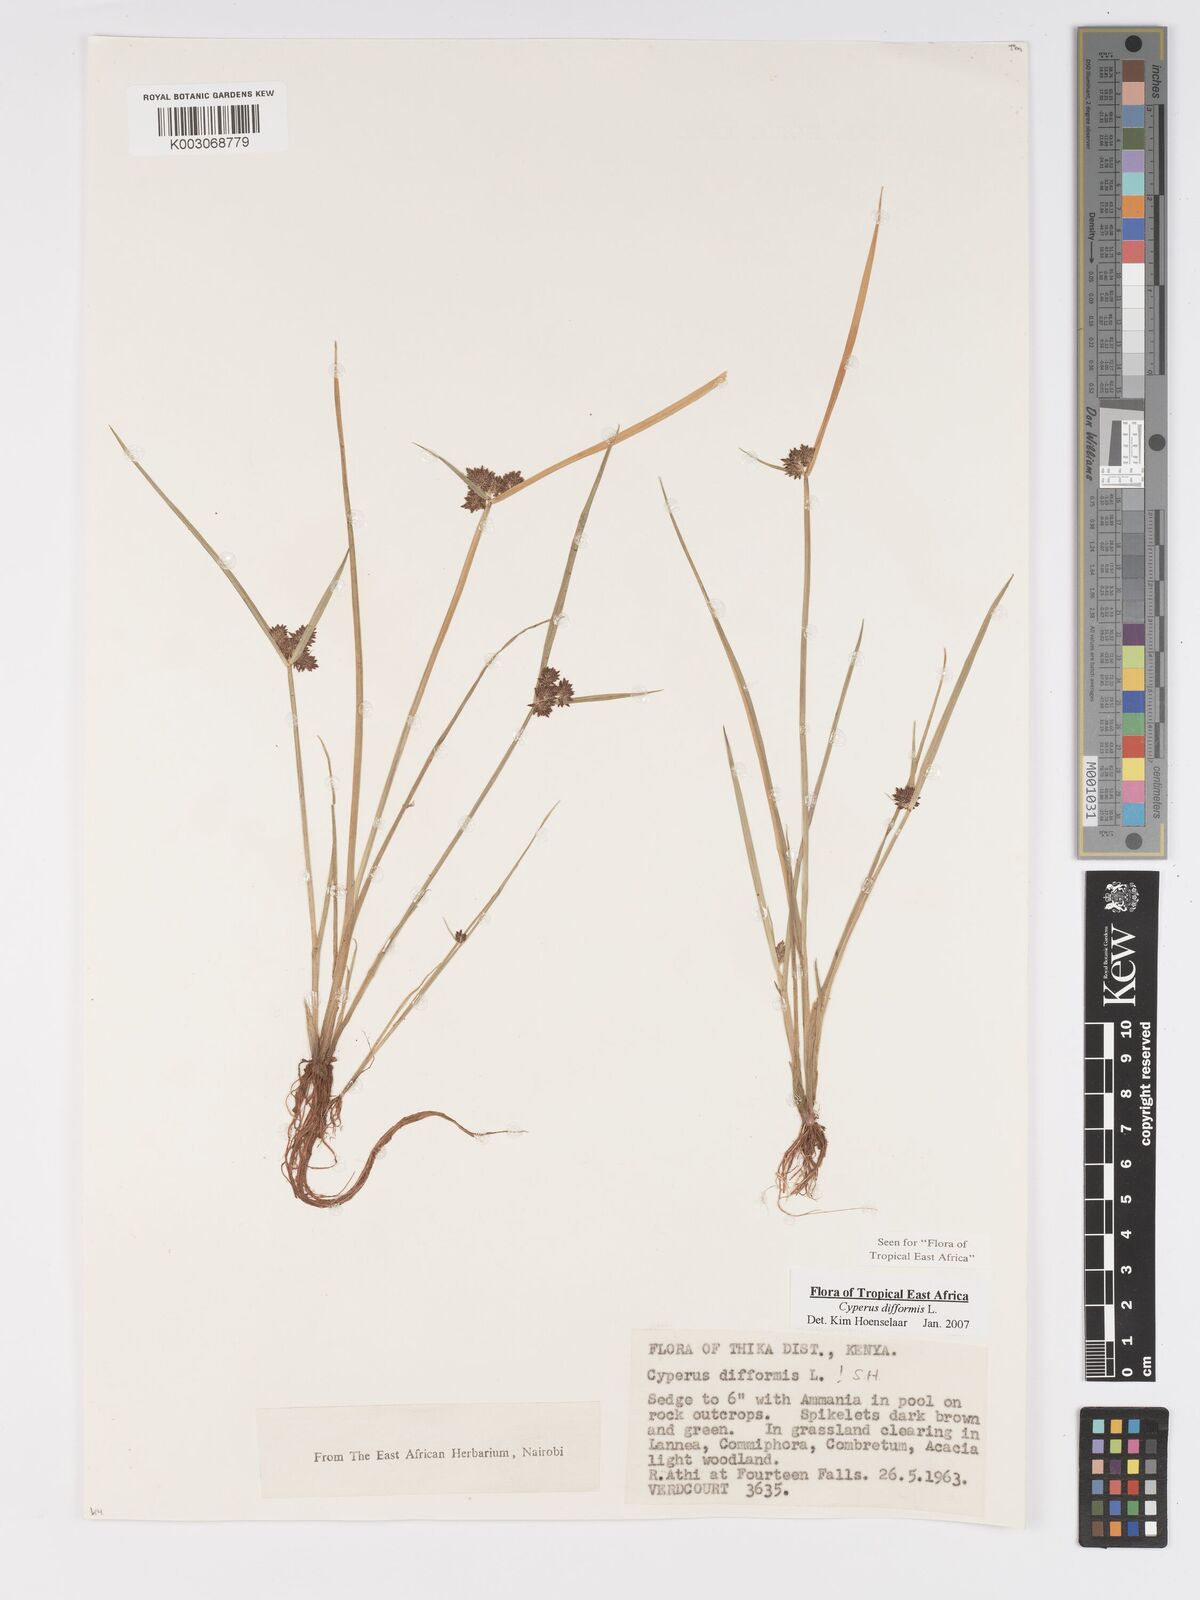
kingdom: Plantae
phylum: Tracheophyta
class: Liliopsida
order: Poales
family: Cyperaceae
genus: Cyperus
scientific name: Cyperus difformis
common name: Variable flatsedge
